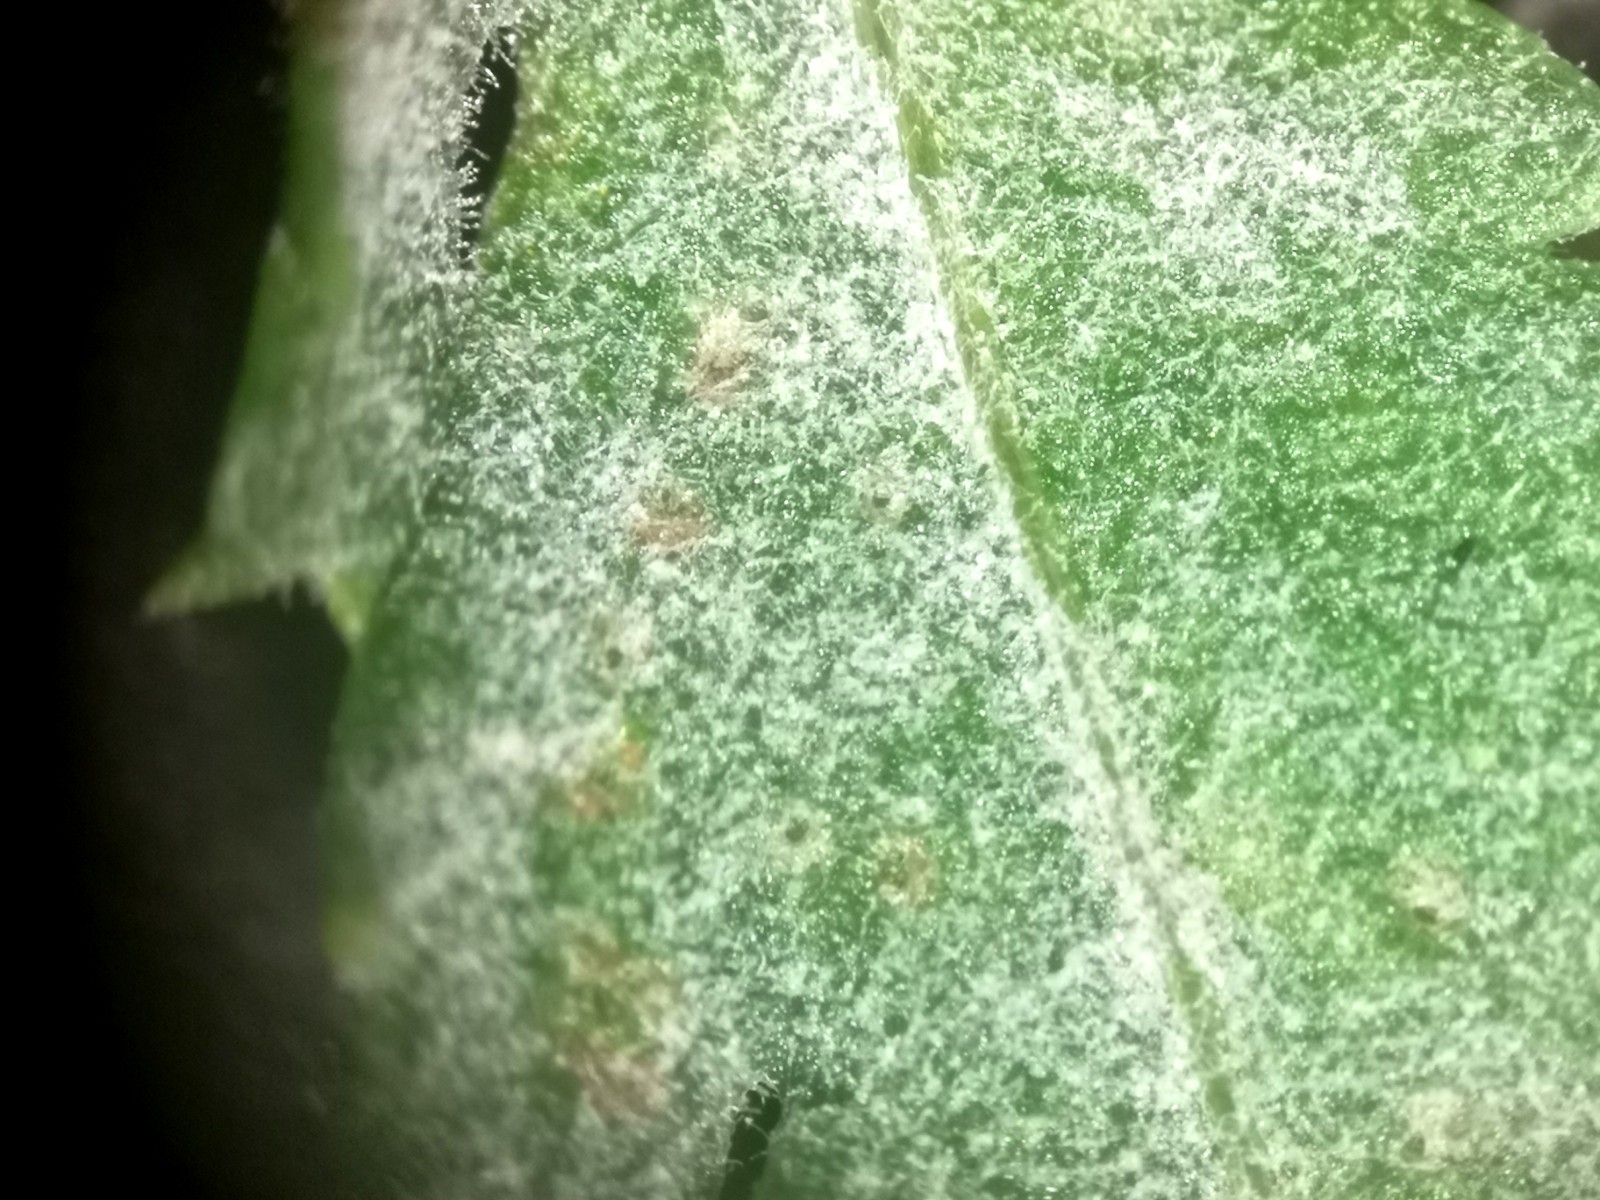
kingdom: Fungi
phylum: Ascomycota
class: Leotiomycetes
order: Helotiales
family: Erysiphaceae
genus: Golovinomyces
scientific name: Golovinomyces macrocarpus
